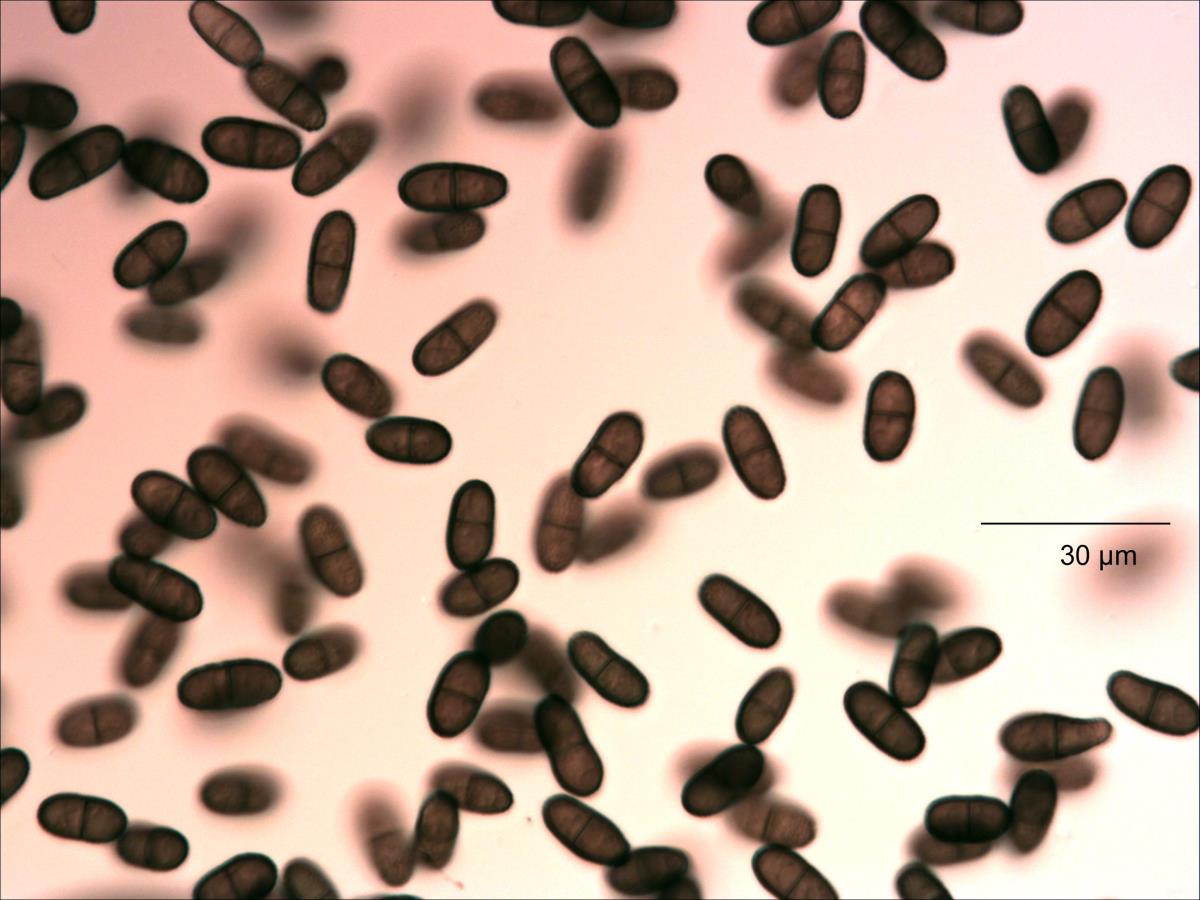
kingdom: Fungi
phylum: Ascomycota
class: Dothideomycetes
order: Botryosphaeriales
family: Botryosphaeriaceae
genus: Diplodia
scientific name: Diplodia
